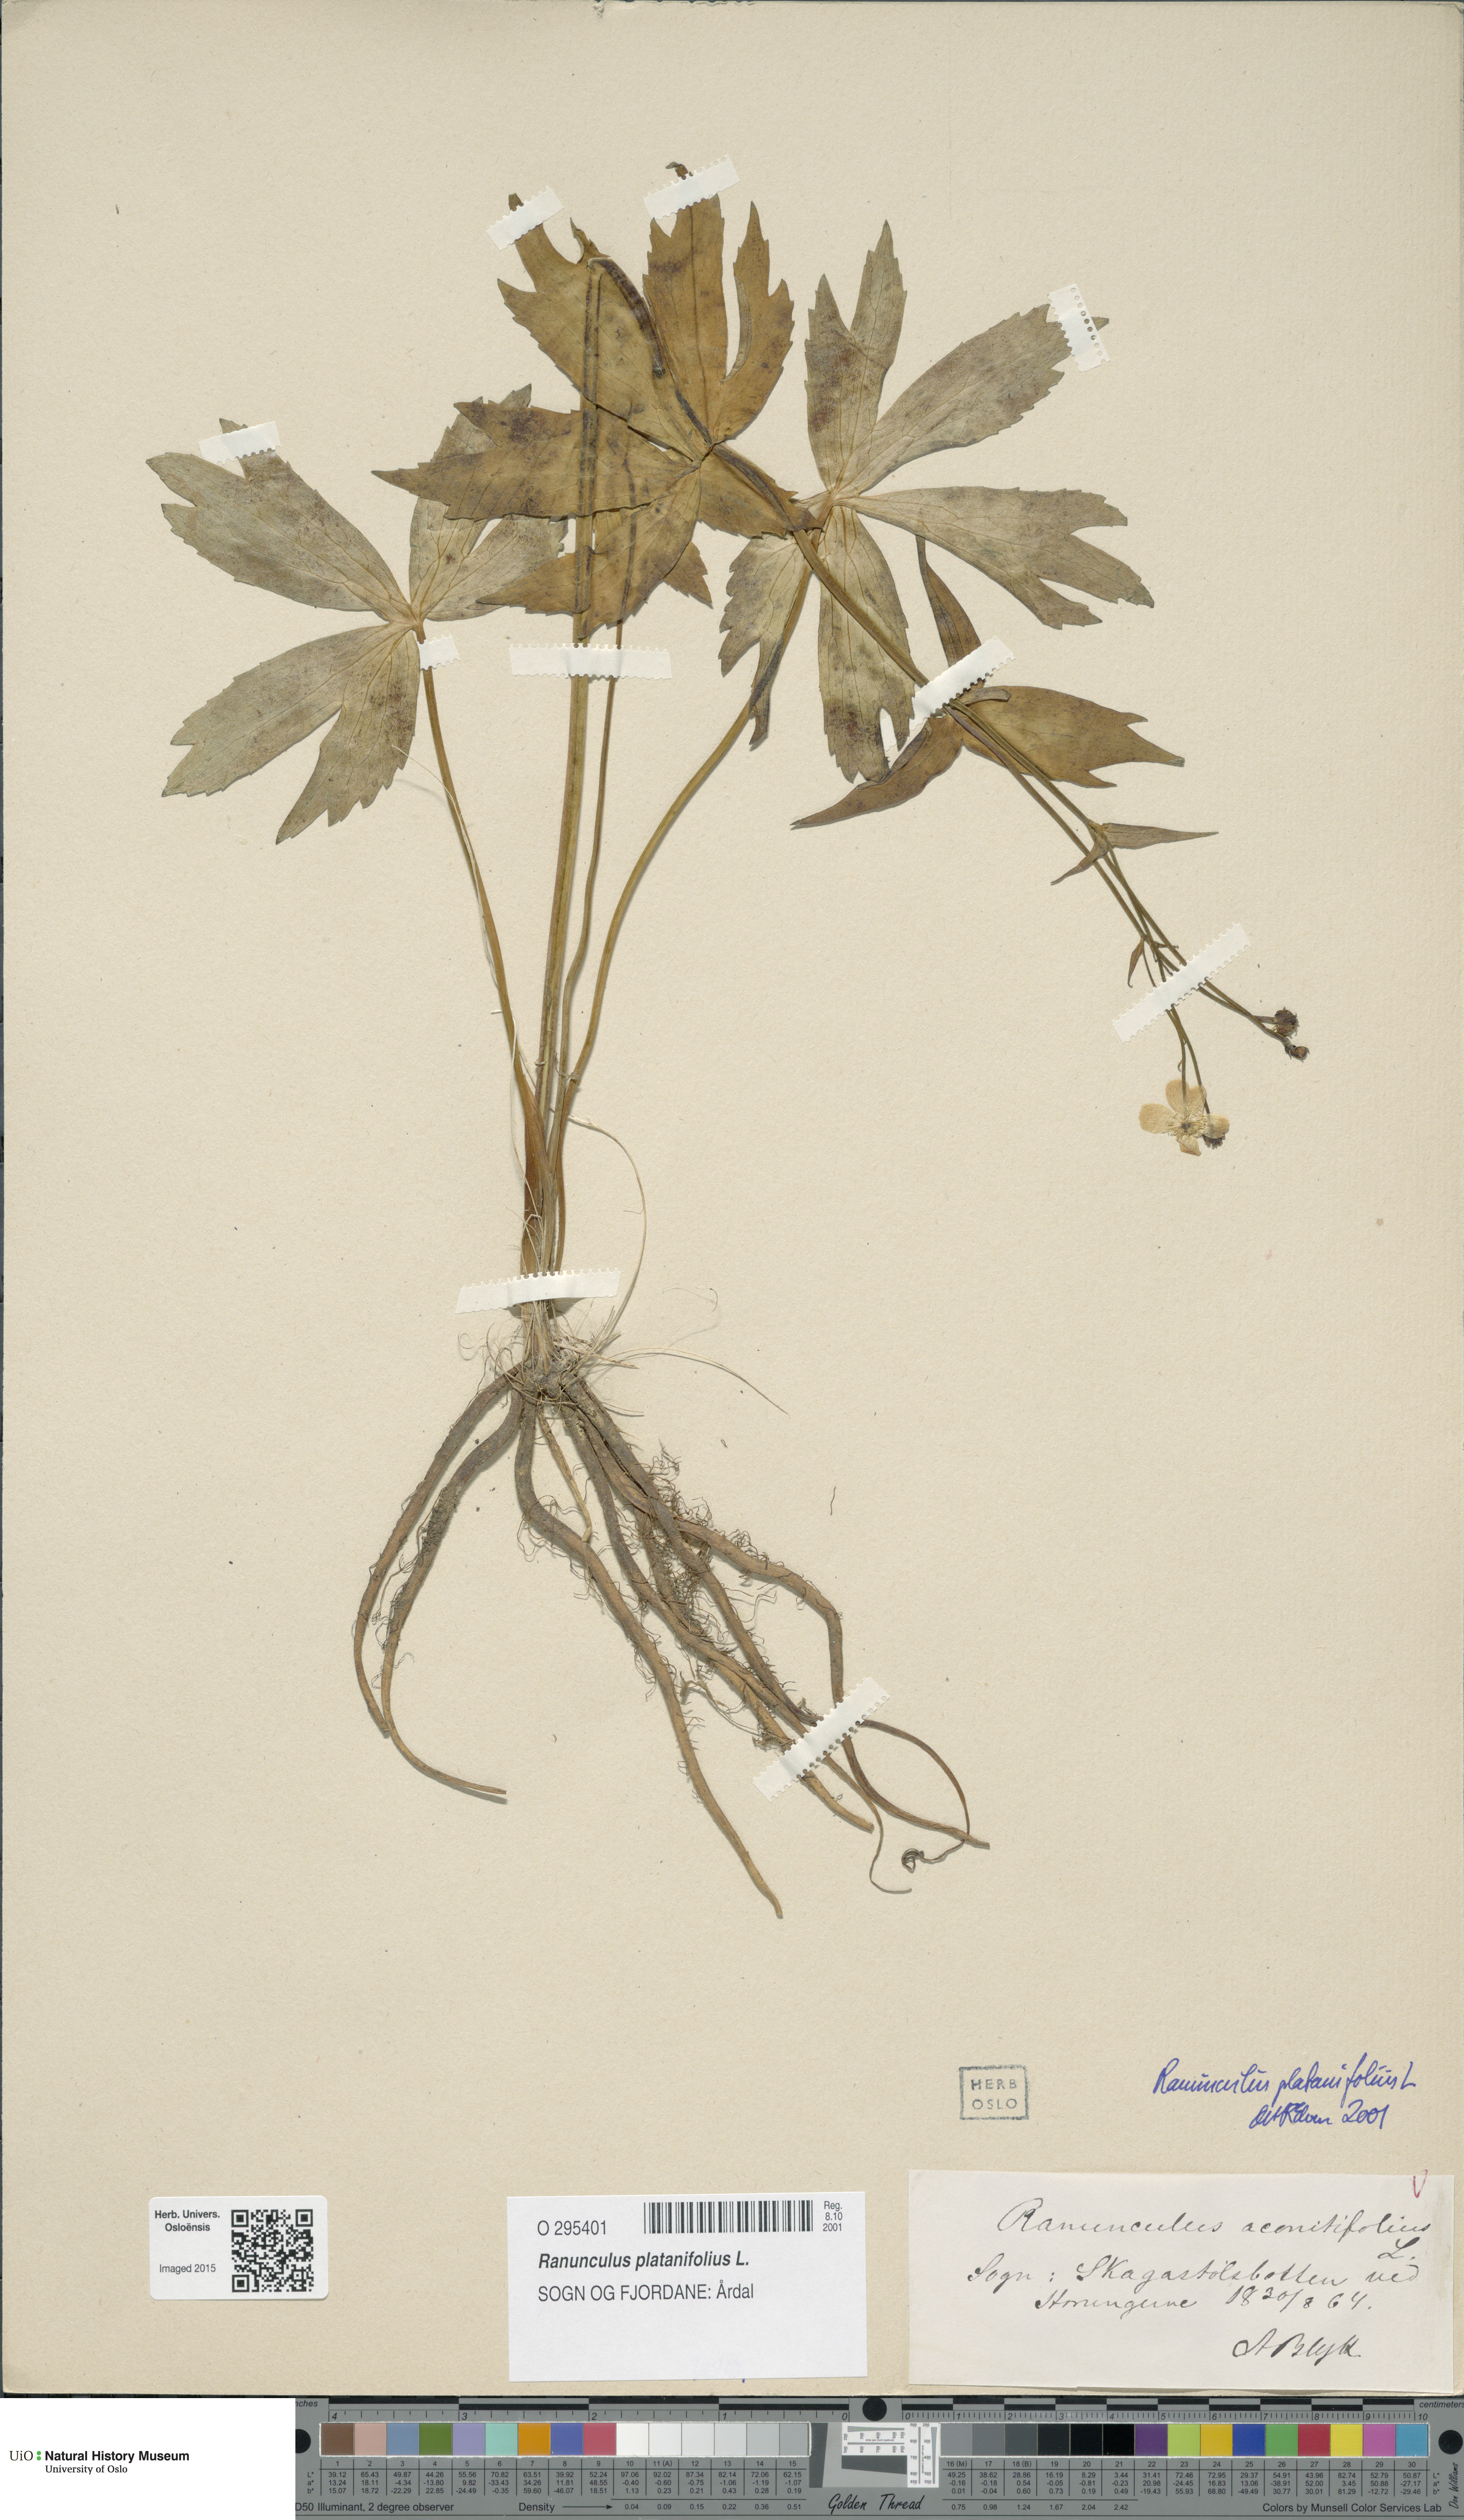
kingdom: Plantae
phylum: Tracheophyta
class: Magnoliopsida
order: Ranunculales
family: Ranunculaceae
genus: Ranunculus
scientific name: Ranunculus platanifolius
